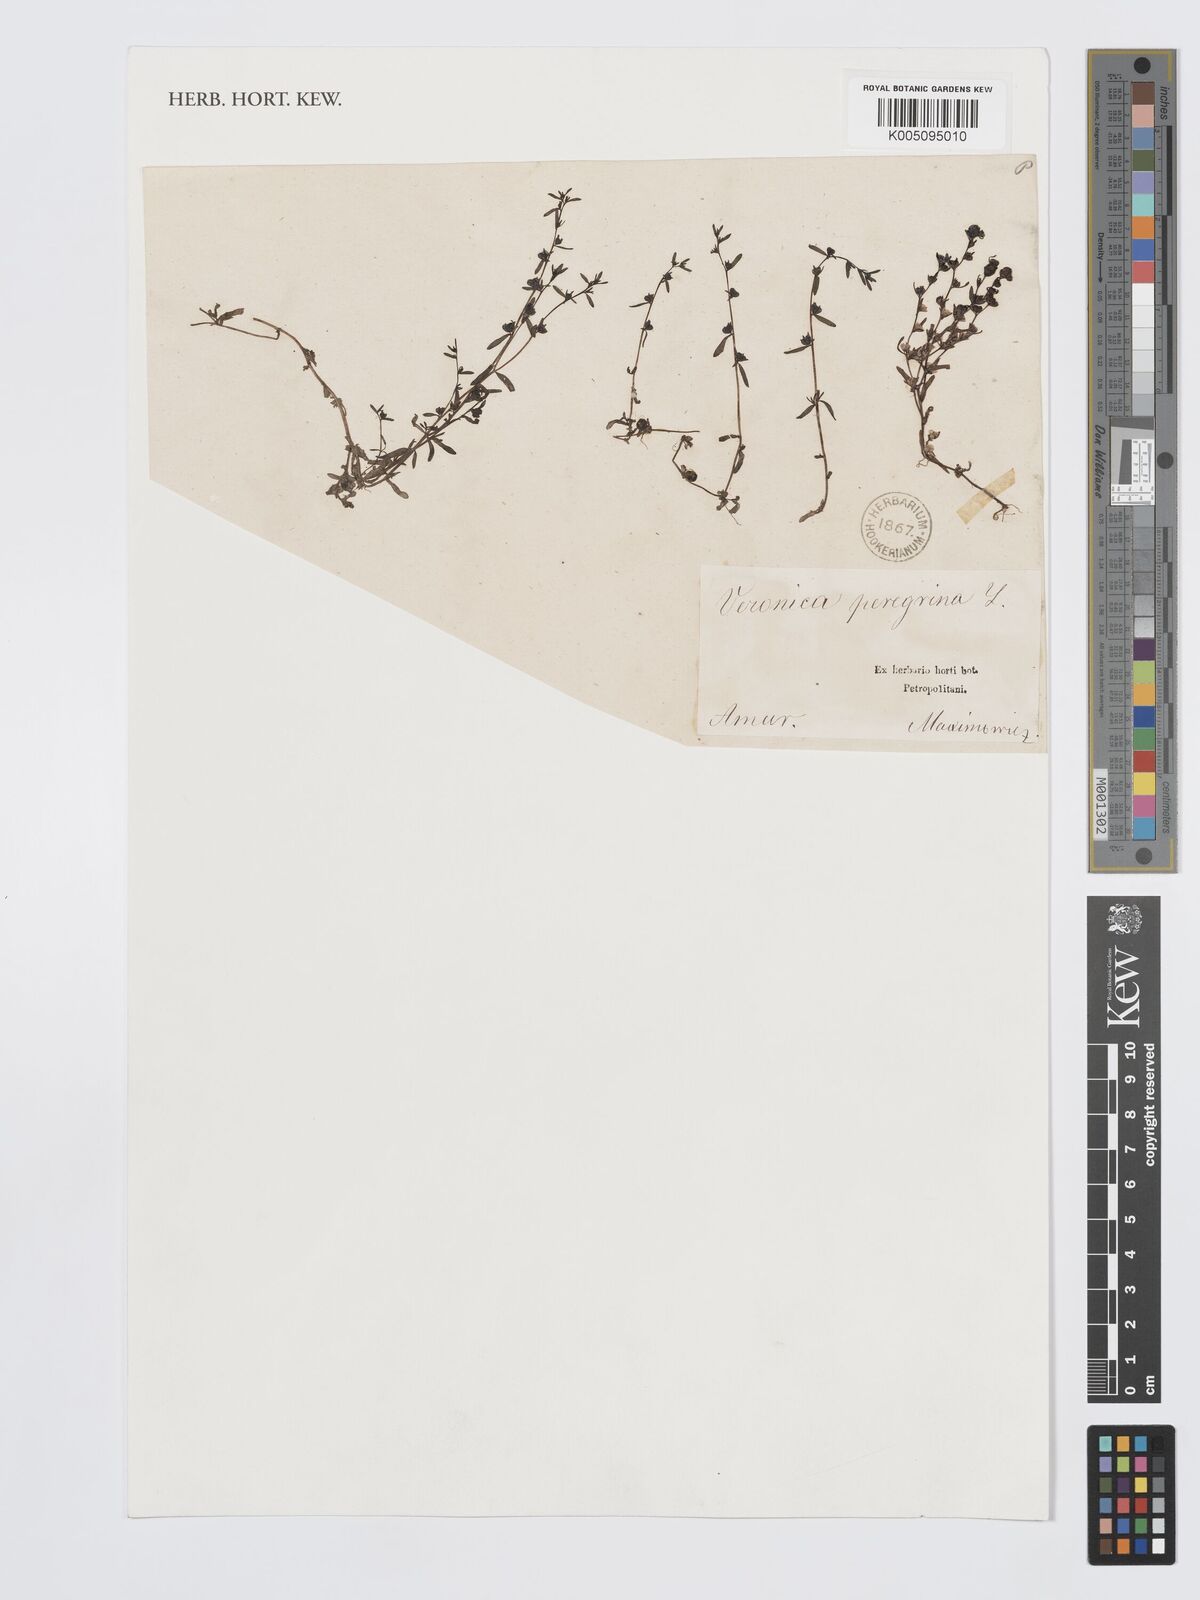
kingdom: Plantae
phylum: Tracheophyta
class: Magnoliopsida
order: Lamiales
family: Plantaginaceae
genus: Veronica
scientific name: Veronica peregrina
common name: Neckweed
